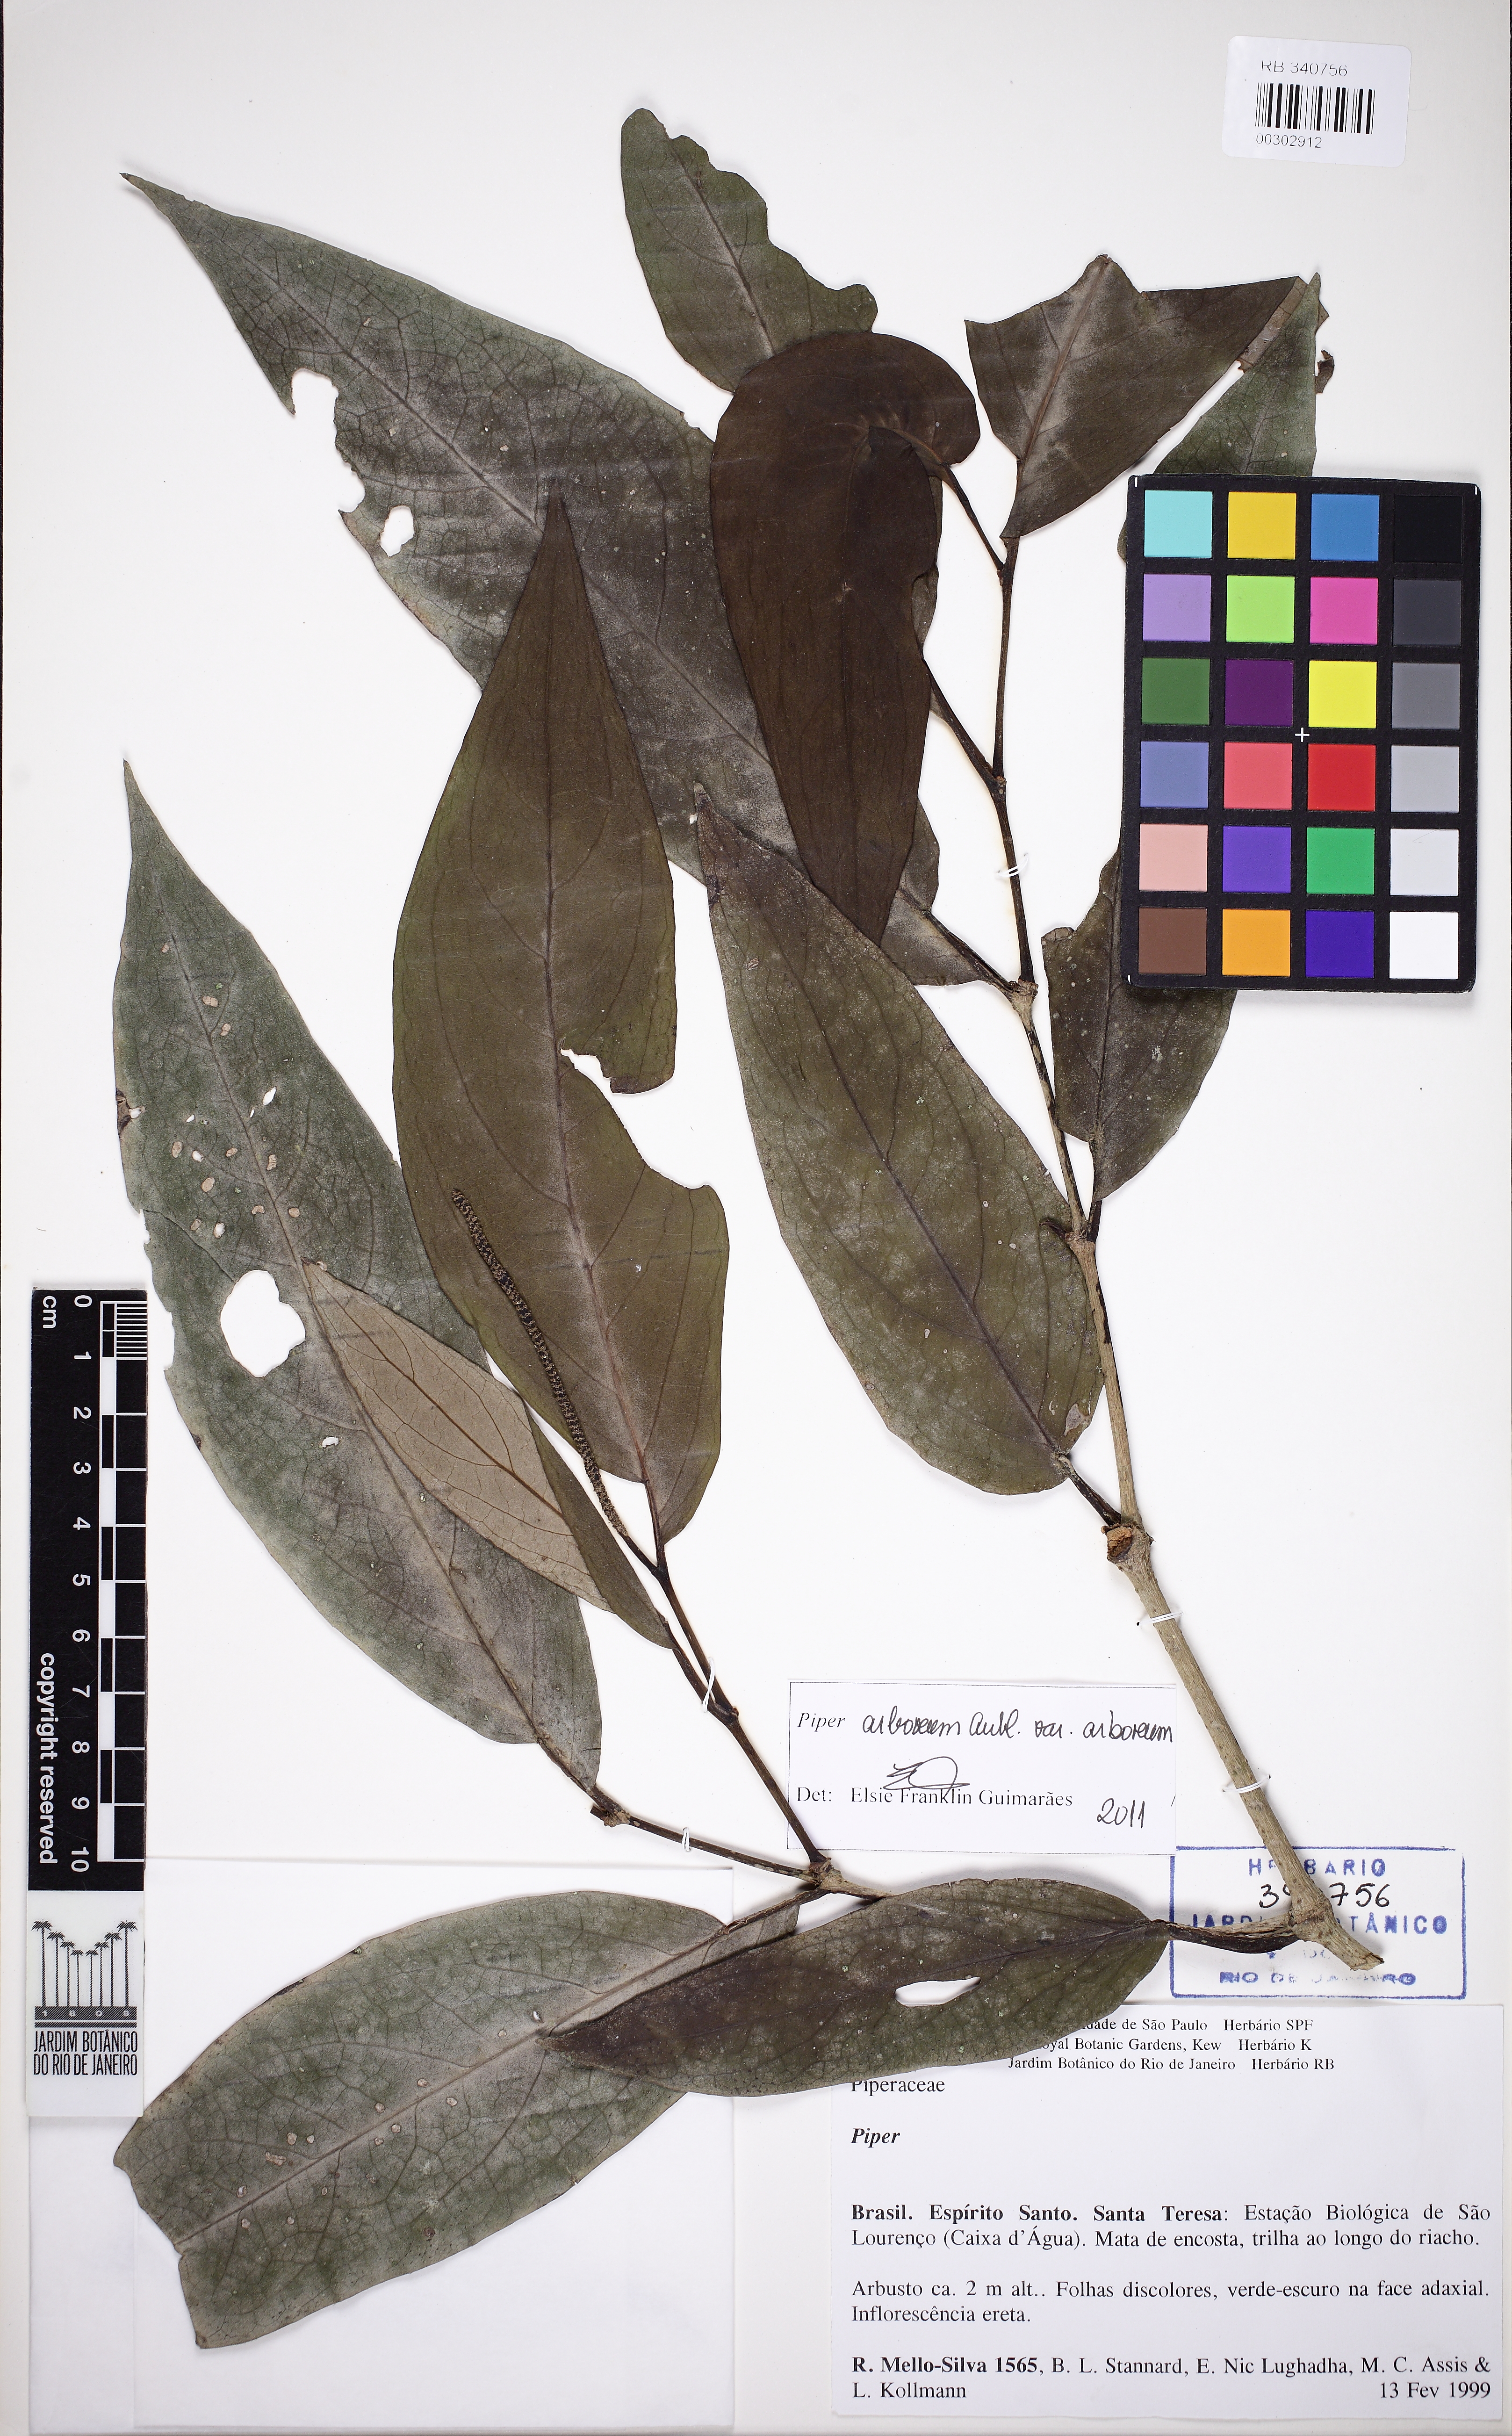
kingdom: Plantae
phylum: Tracheophyta
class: Magnoliopsida
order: Piperales
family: Piperaceae
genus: Piper
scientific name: Piper arboreum
